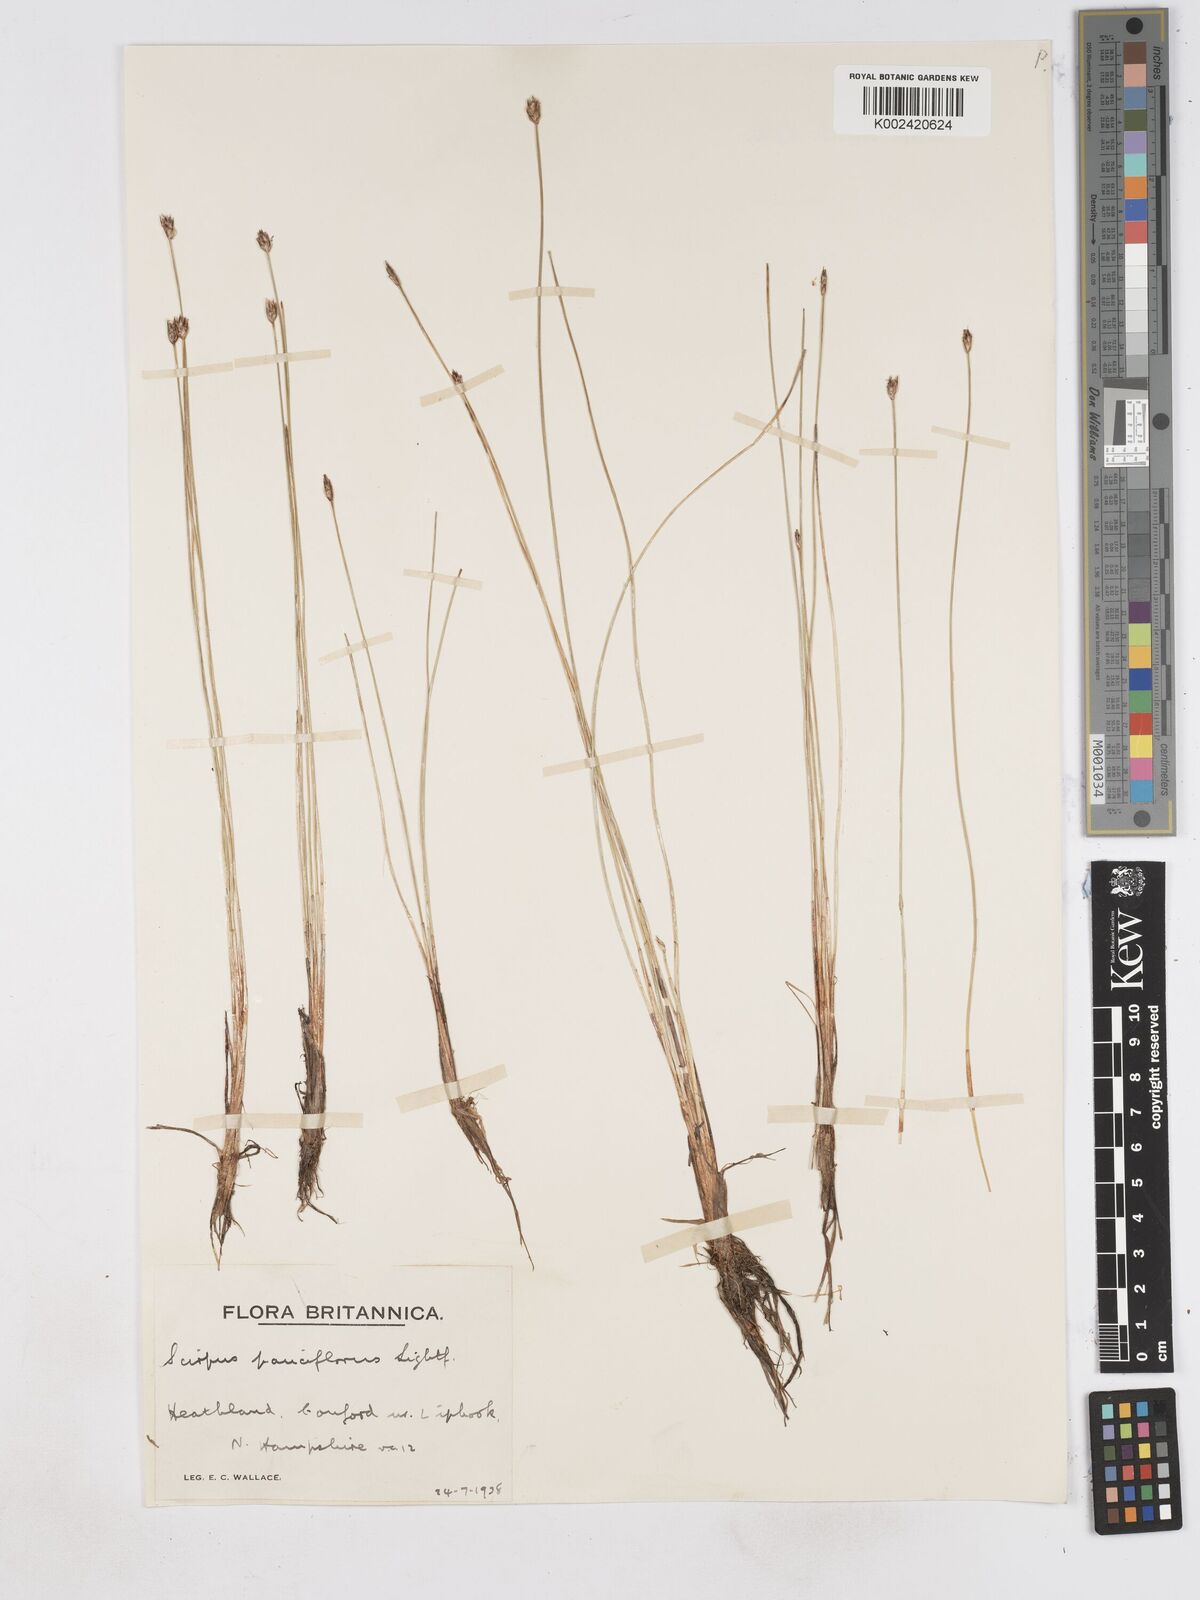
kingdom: Plantae
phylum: Tracheophyta
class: Liliopsida
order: Poales
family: Cyperaceae
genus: Eleocharis
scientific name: Eleocharis quinqueflora
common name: Few-flowered spike-rush
